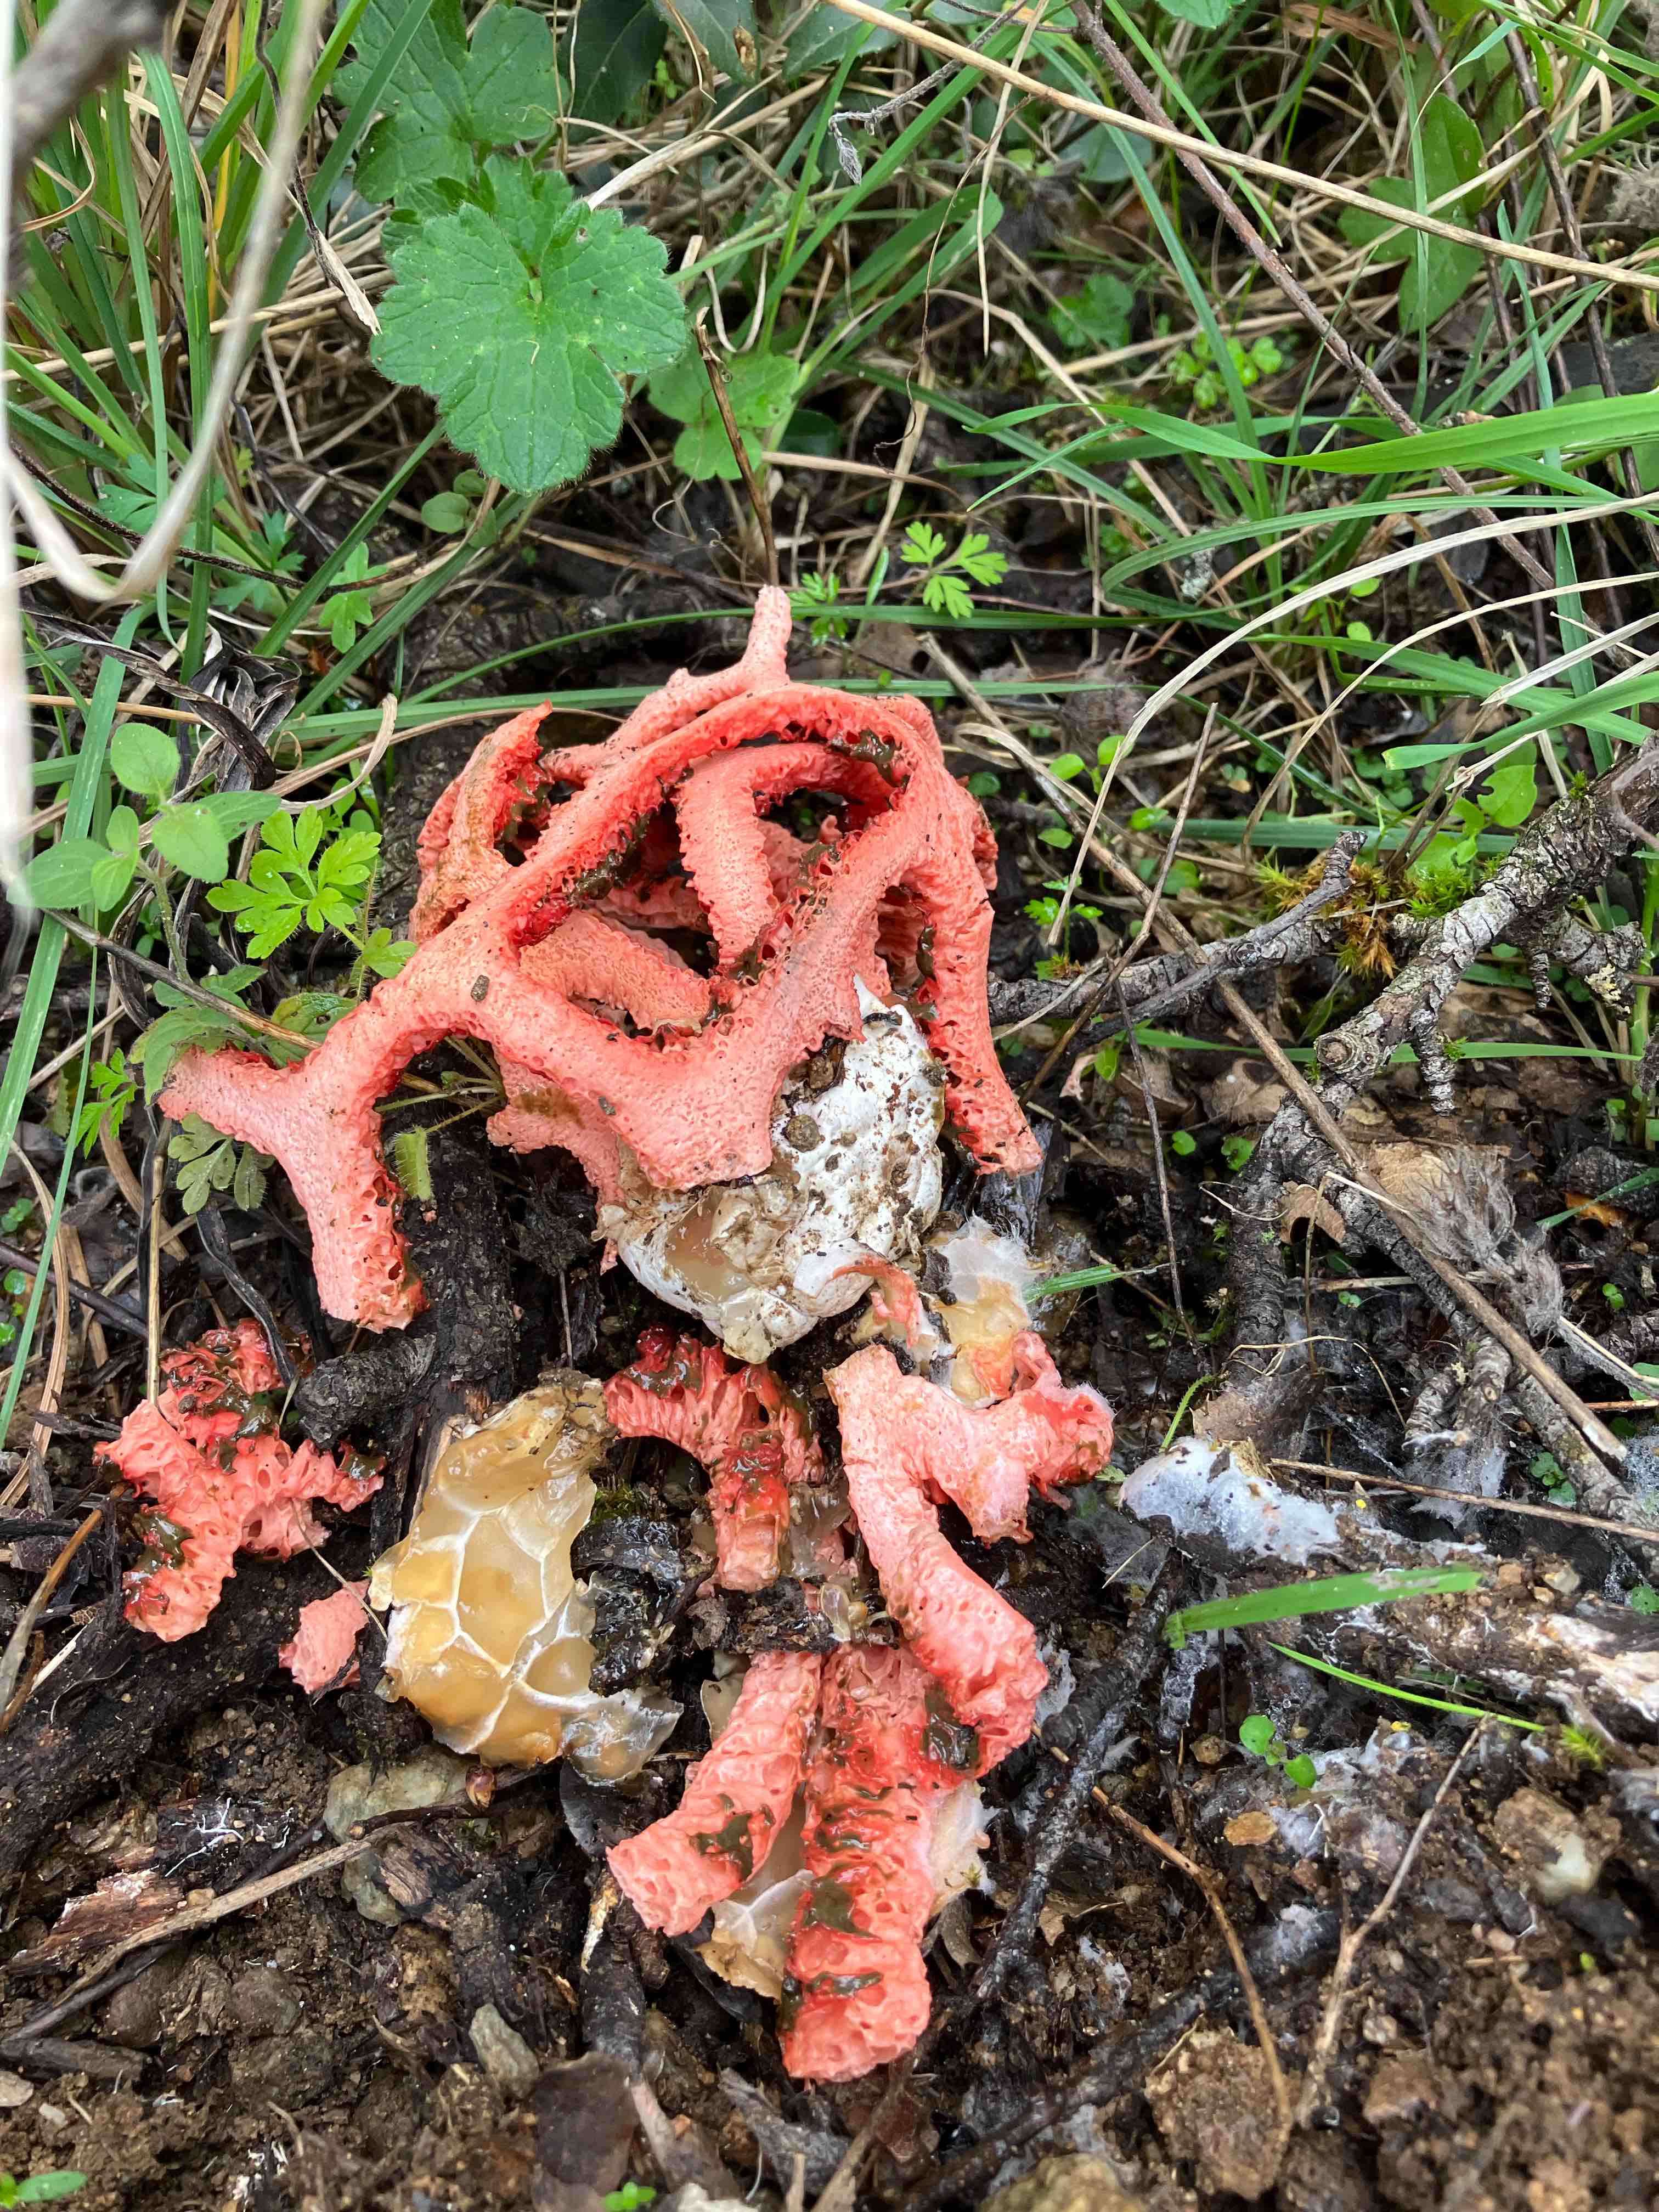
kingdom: Fungi
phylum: Basidiomycota
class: Agaricomycetes
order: Phallales
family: Phallaceae
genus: Clathrus
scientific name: Clathrus ruber
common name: rød gitterkugle
